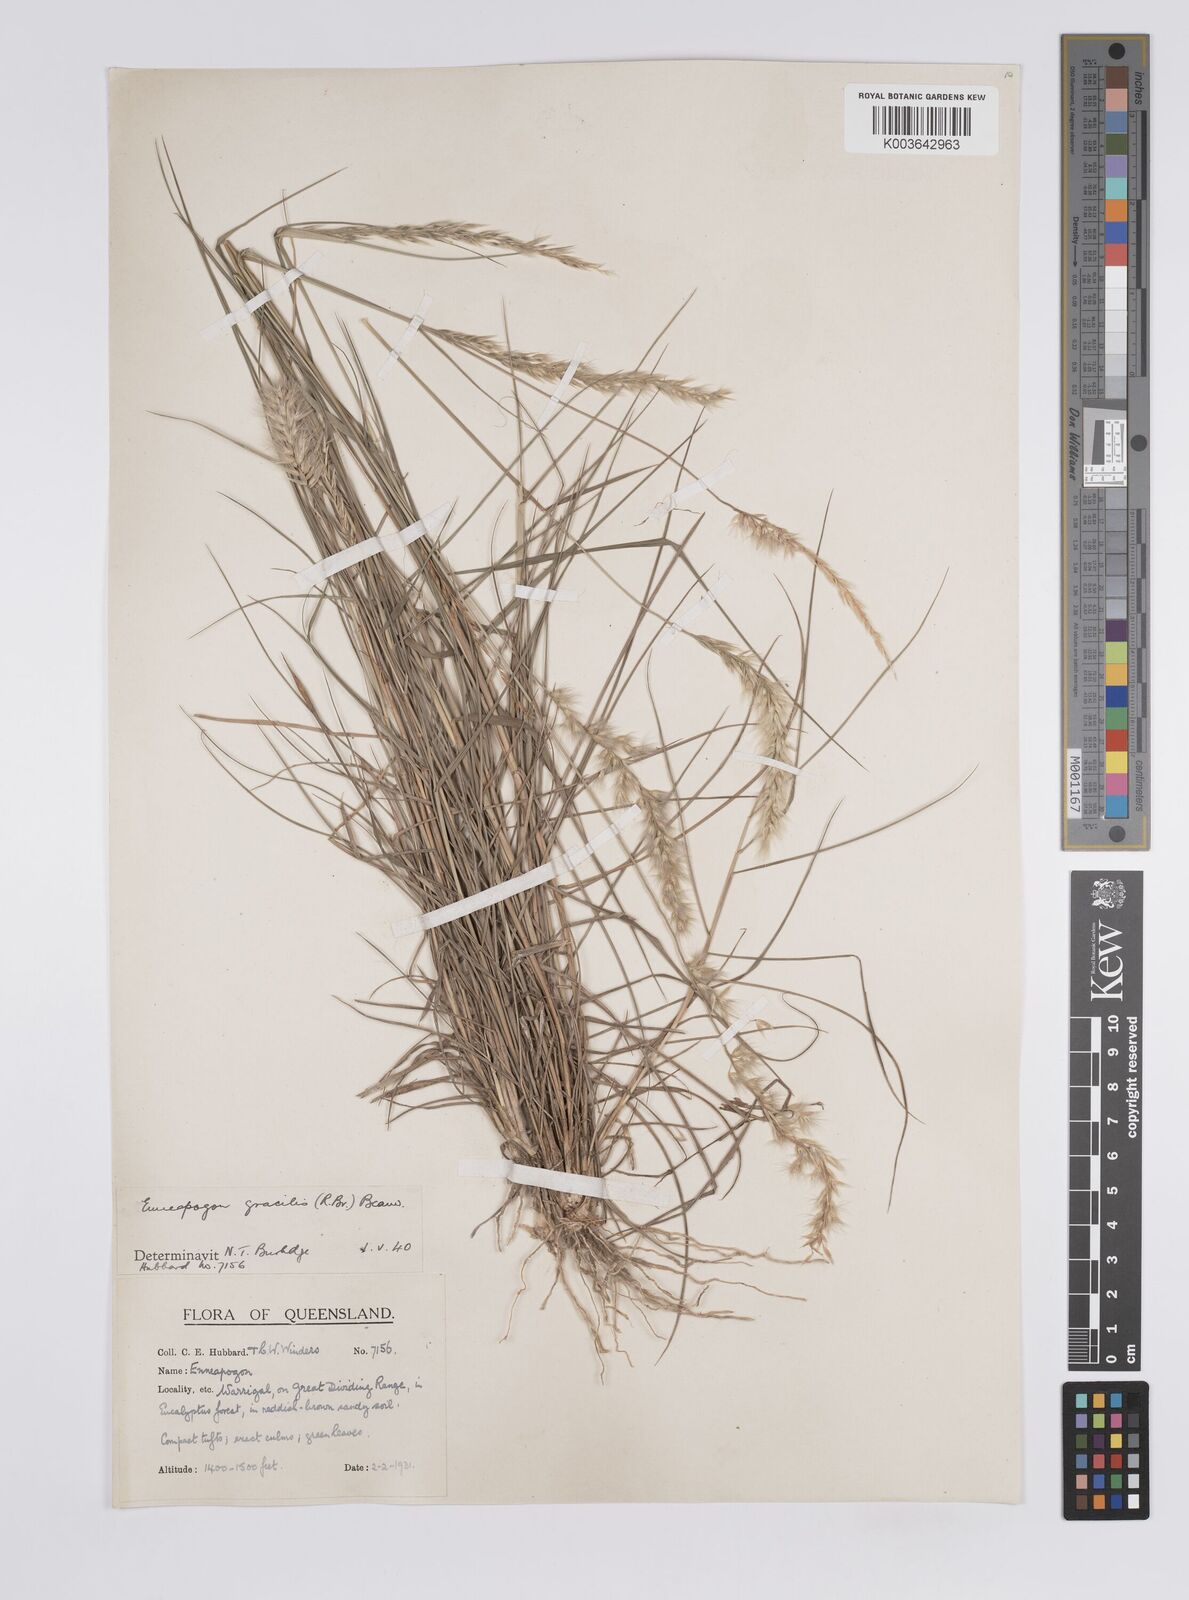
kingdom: Plantae
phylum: Tracheophyta
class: Liliopsida
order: Poales
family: Poaceae
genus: Enneapogon
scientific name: Enneapogon gracilis
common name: Slender bottle-washers
